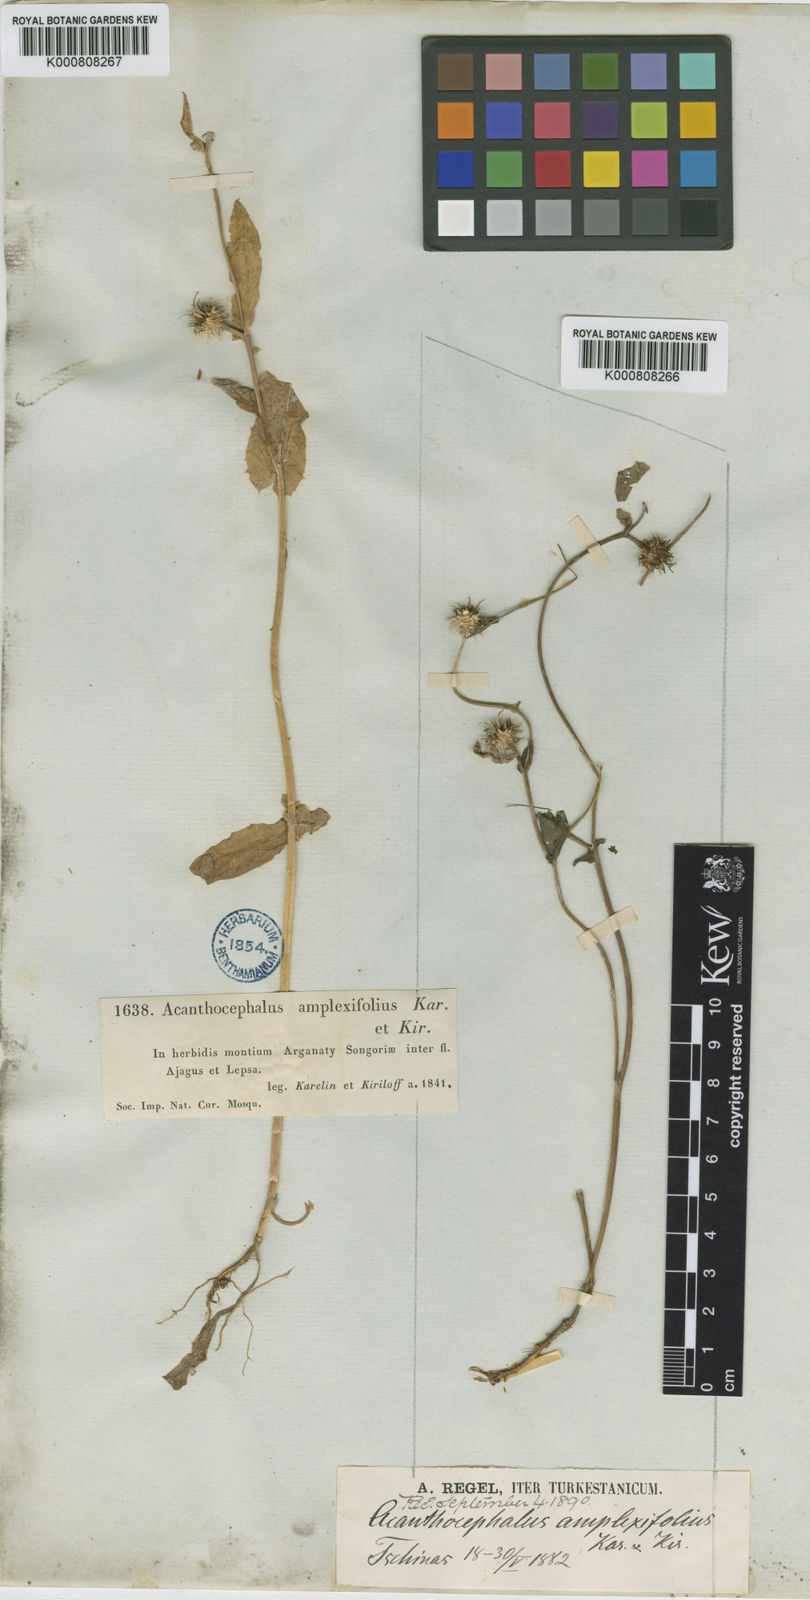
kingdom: Plantae
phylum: Tracheophyta
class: Magnoliopsida
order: Asterales
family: Asteraceae
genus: Acanthocephalus
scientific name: Acanthocephalus amplexifolius
